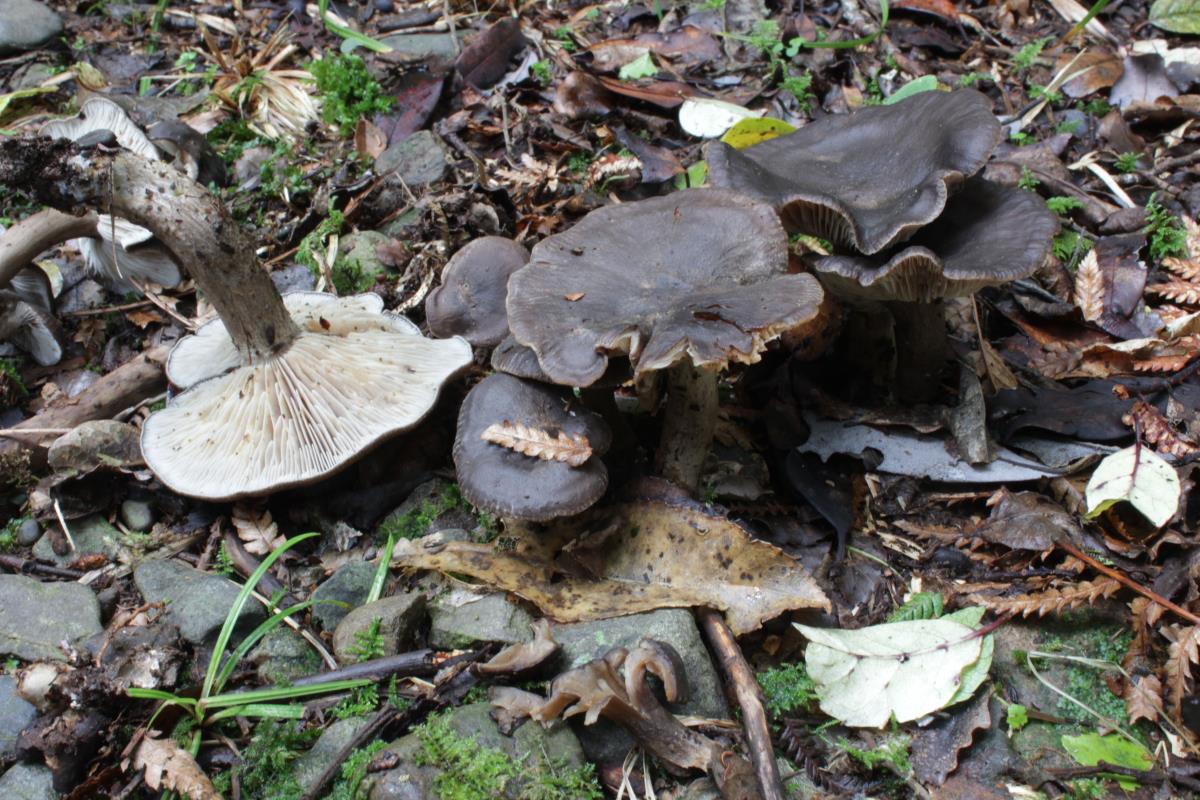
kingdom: Fungi
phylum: Basidiomycota
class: Agaricomycetes
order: Agaricales
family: Lyophyllaceae
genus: Lyophyllum
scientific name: Lyophyllum moncalvoanum
